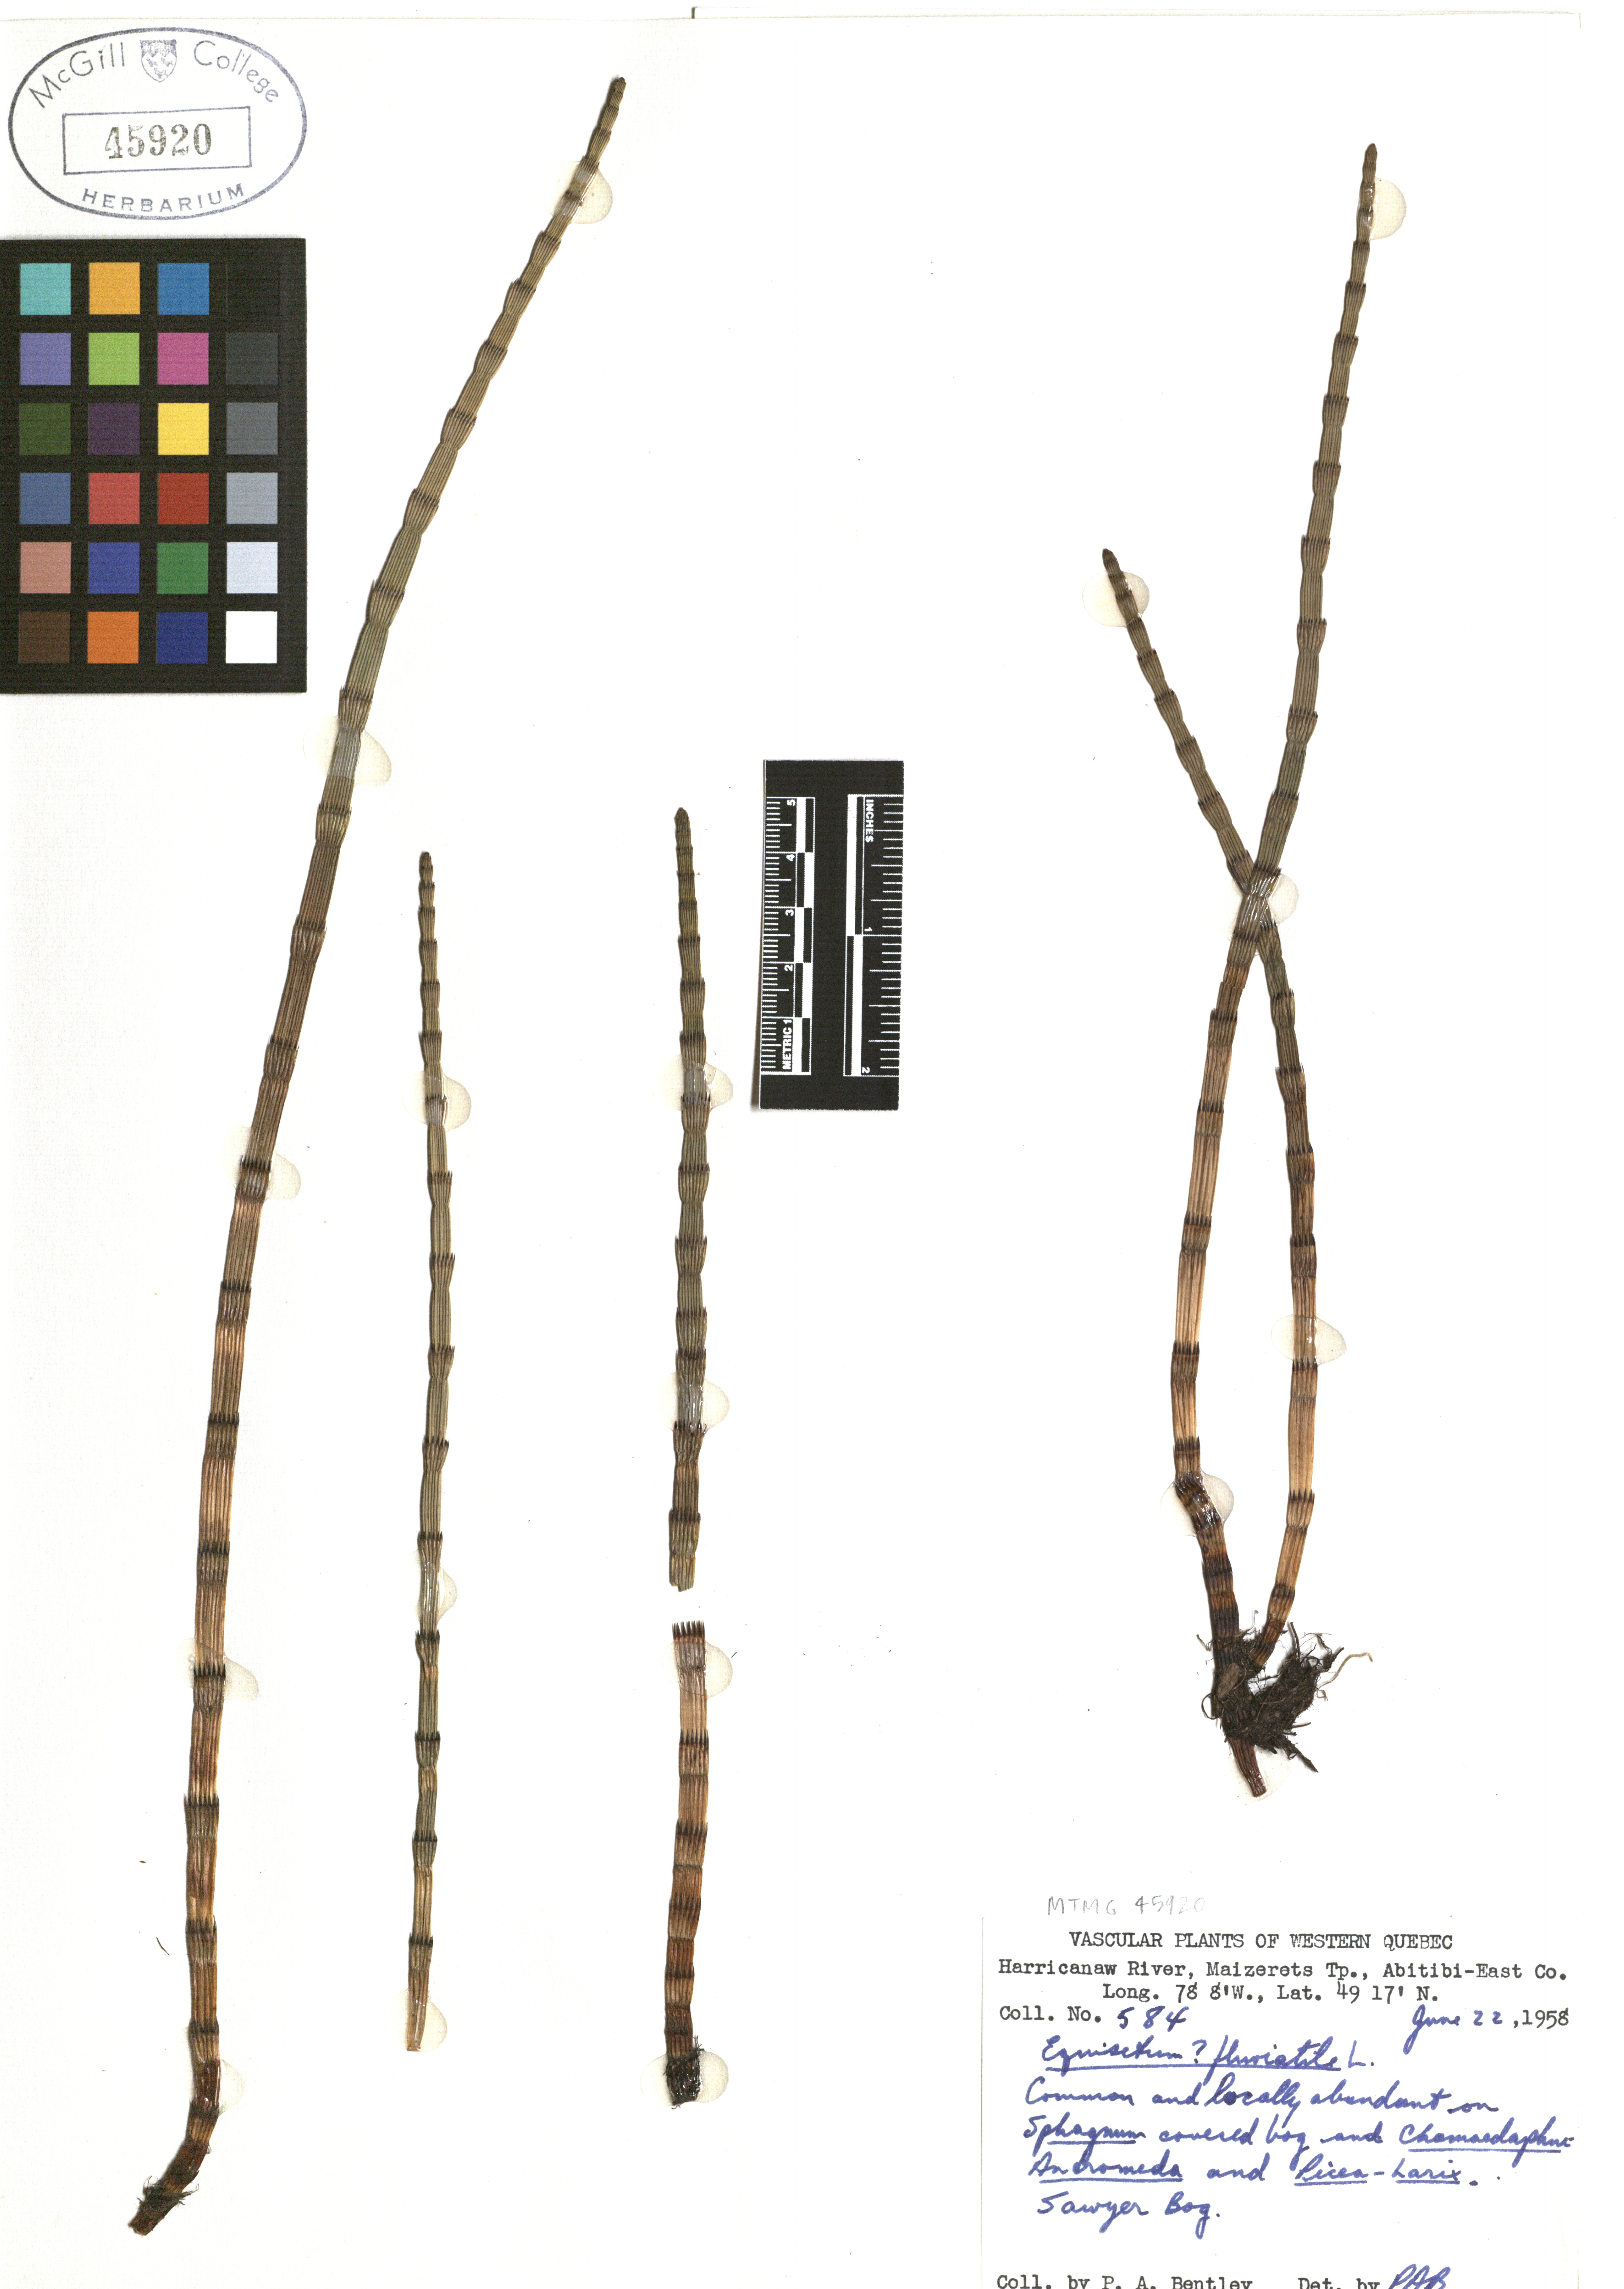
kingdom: Plantae
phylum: Tracheophyta
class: Polypodiopsida
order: Equisetales
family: Equisetaceae
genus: Equisetum
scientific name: Equisetum fluviatile
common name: Water horsetail
